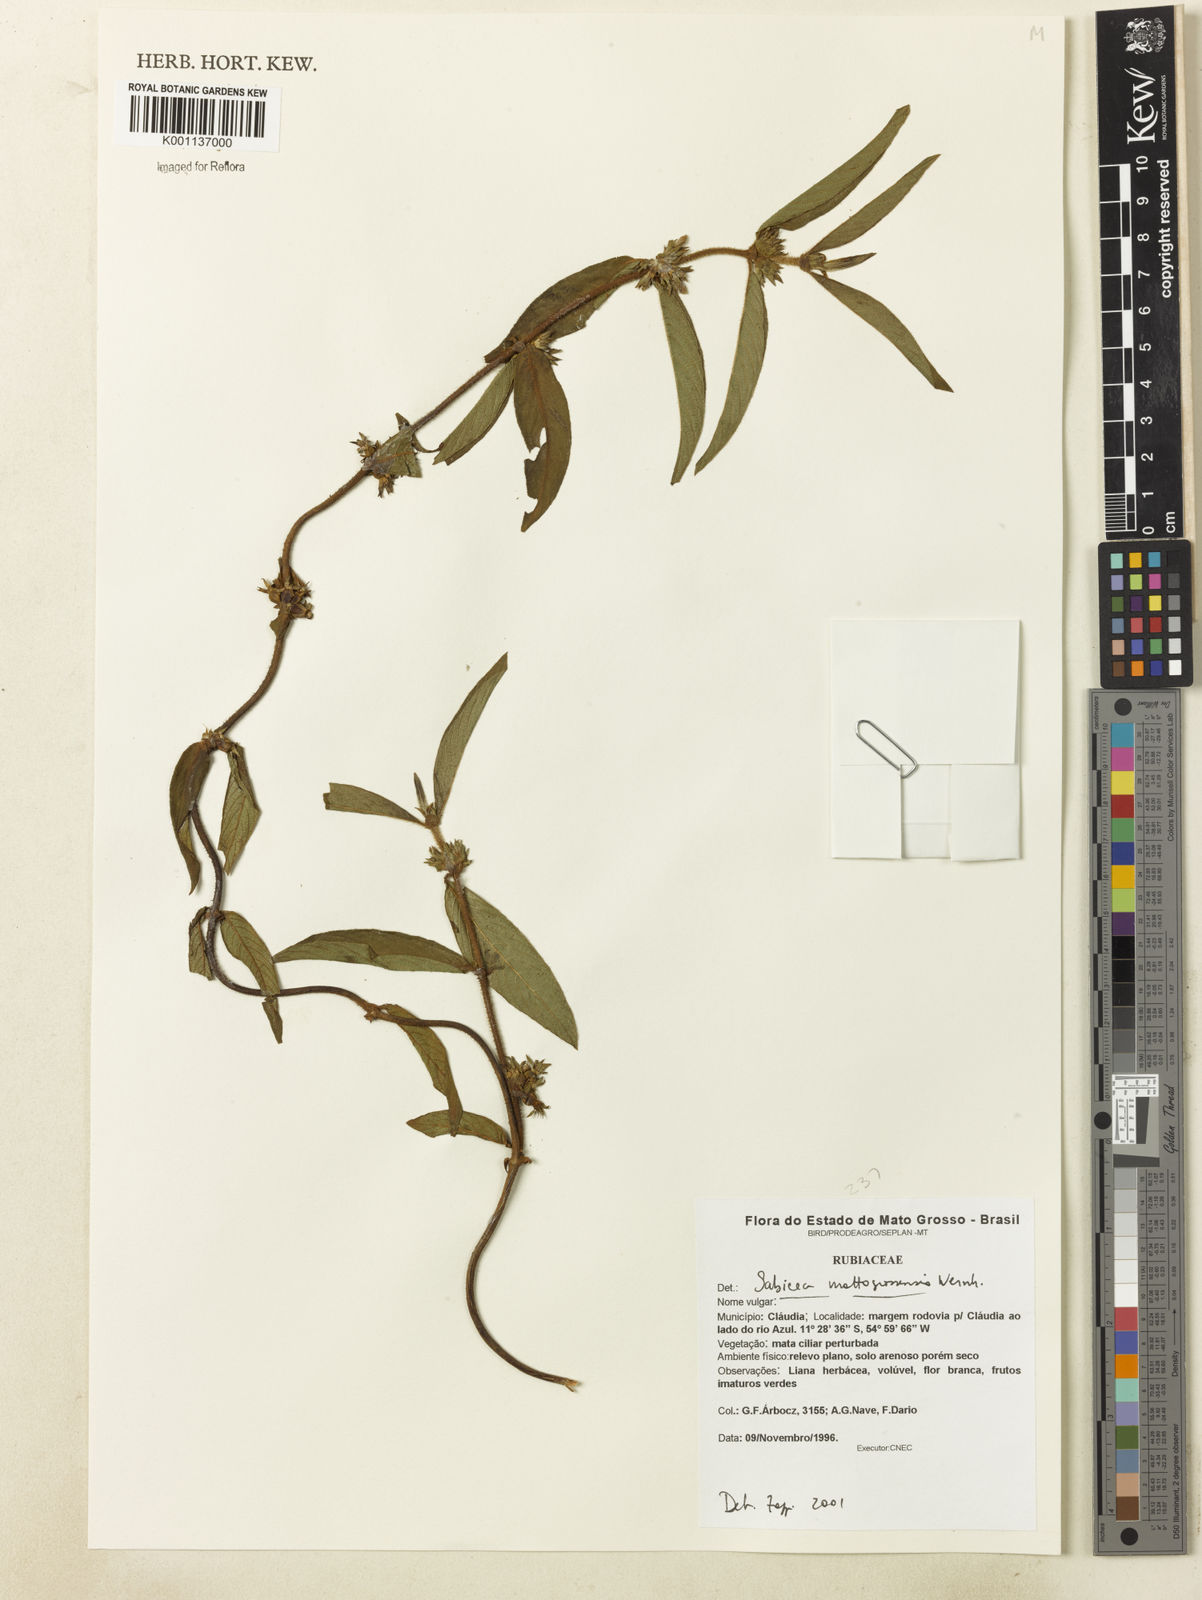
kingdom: Plantae
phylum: Tracheophyta
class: Magnoliopsida
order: Gentianales
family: Rubiaceae
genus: Sabicea
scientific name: Sabicea mattogrossensis
